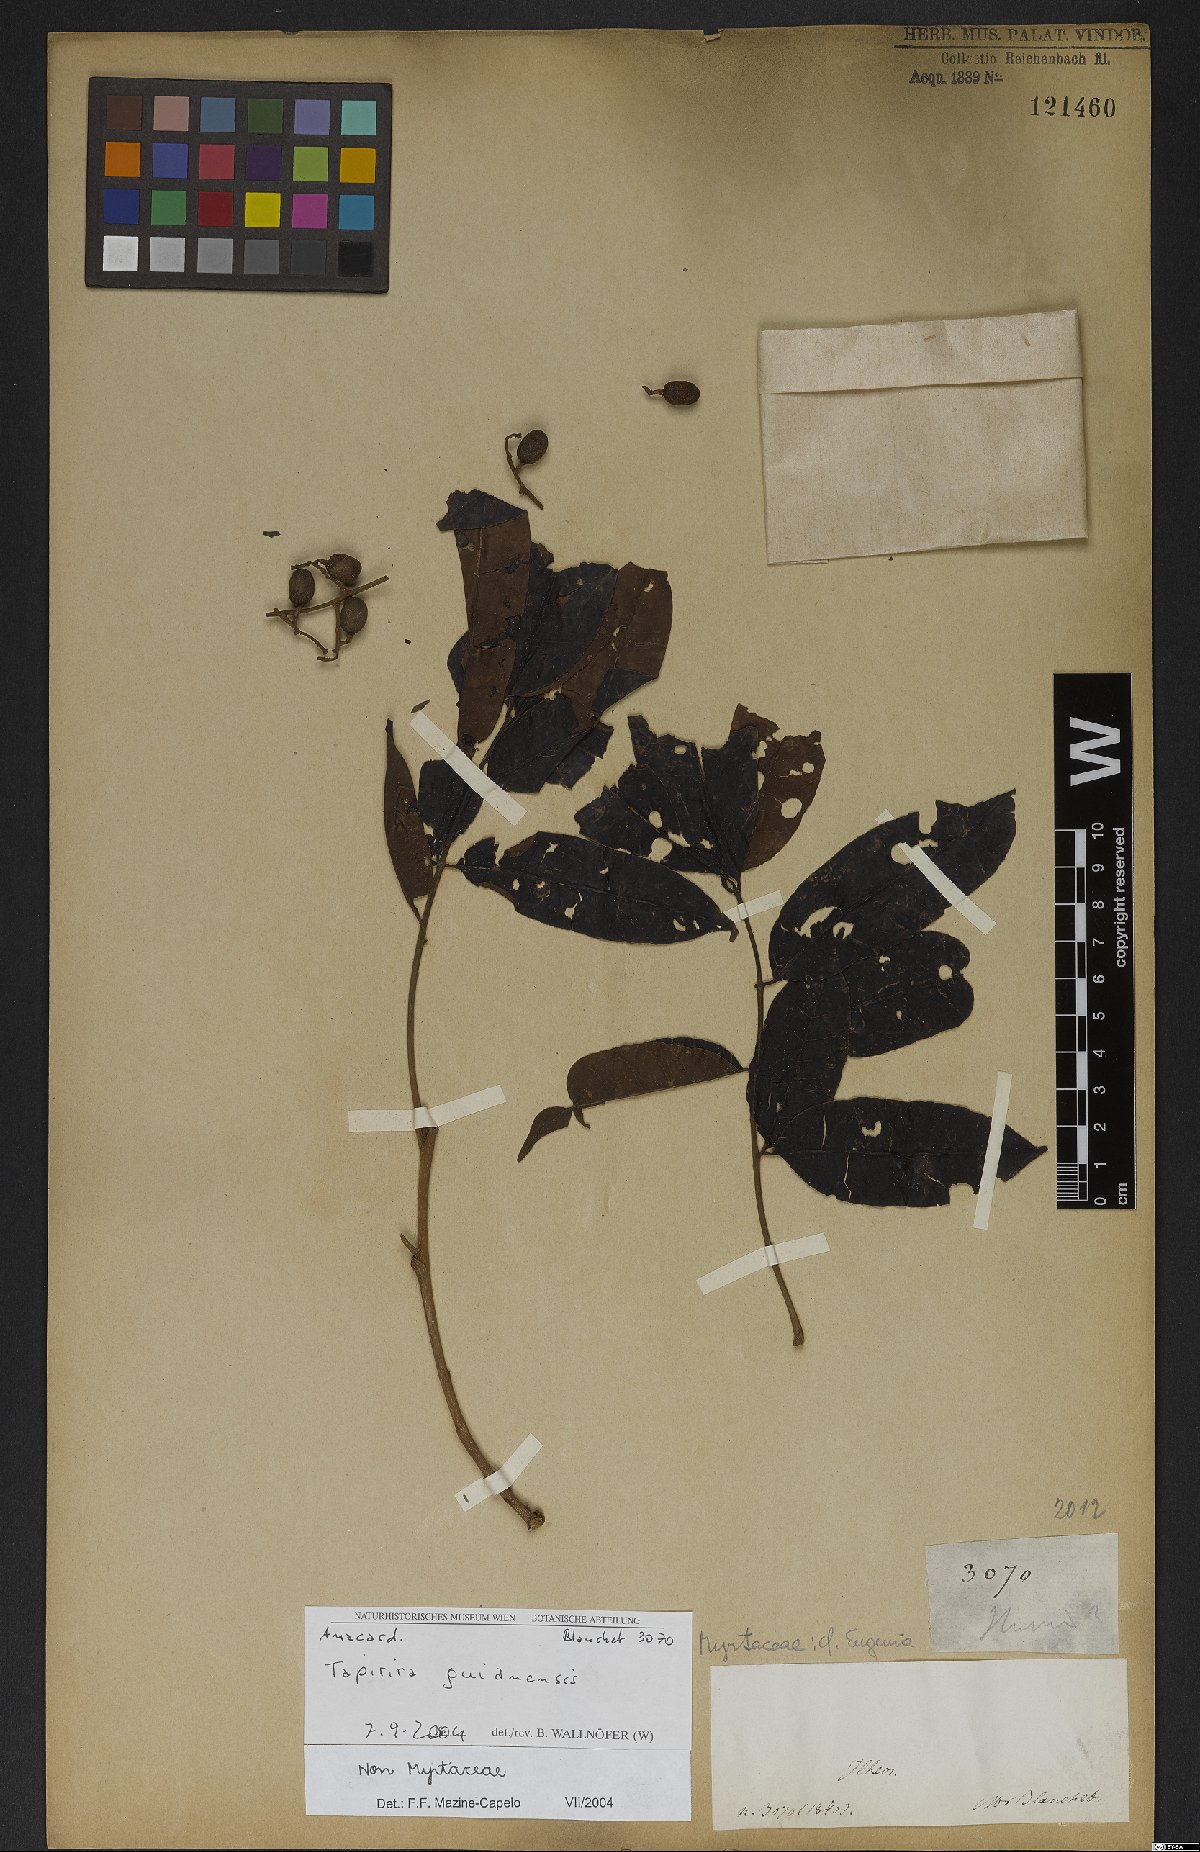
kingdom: Plantae
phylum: Tracheophyta
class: Magnoliopsida
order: Sapindales
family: Anacardiaceae
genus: Tapirira
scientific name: Tapirira guianensis
